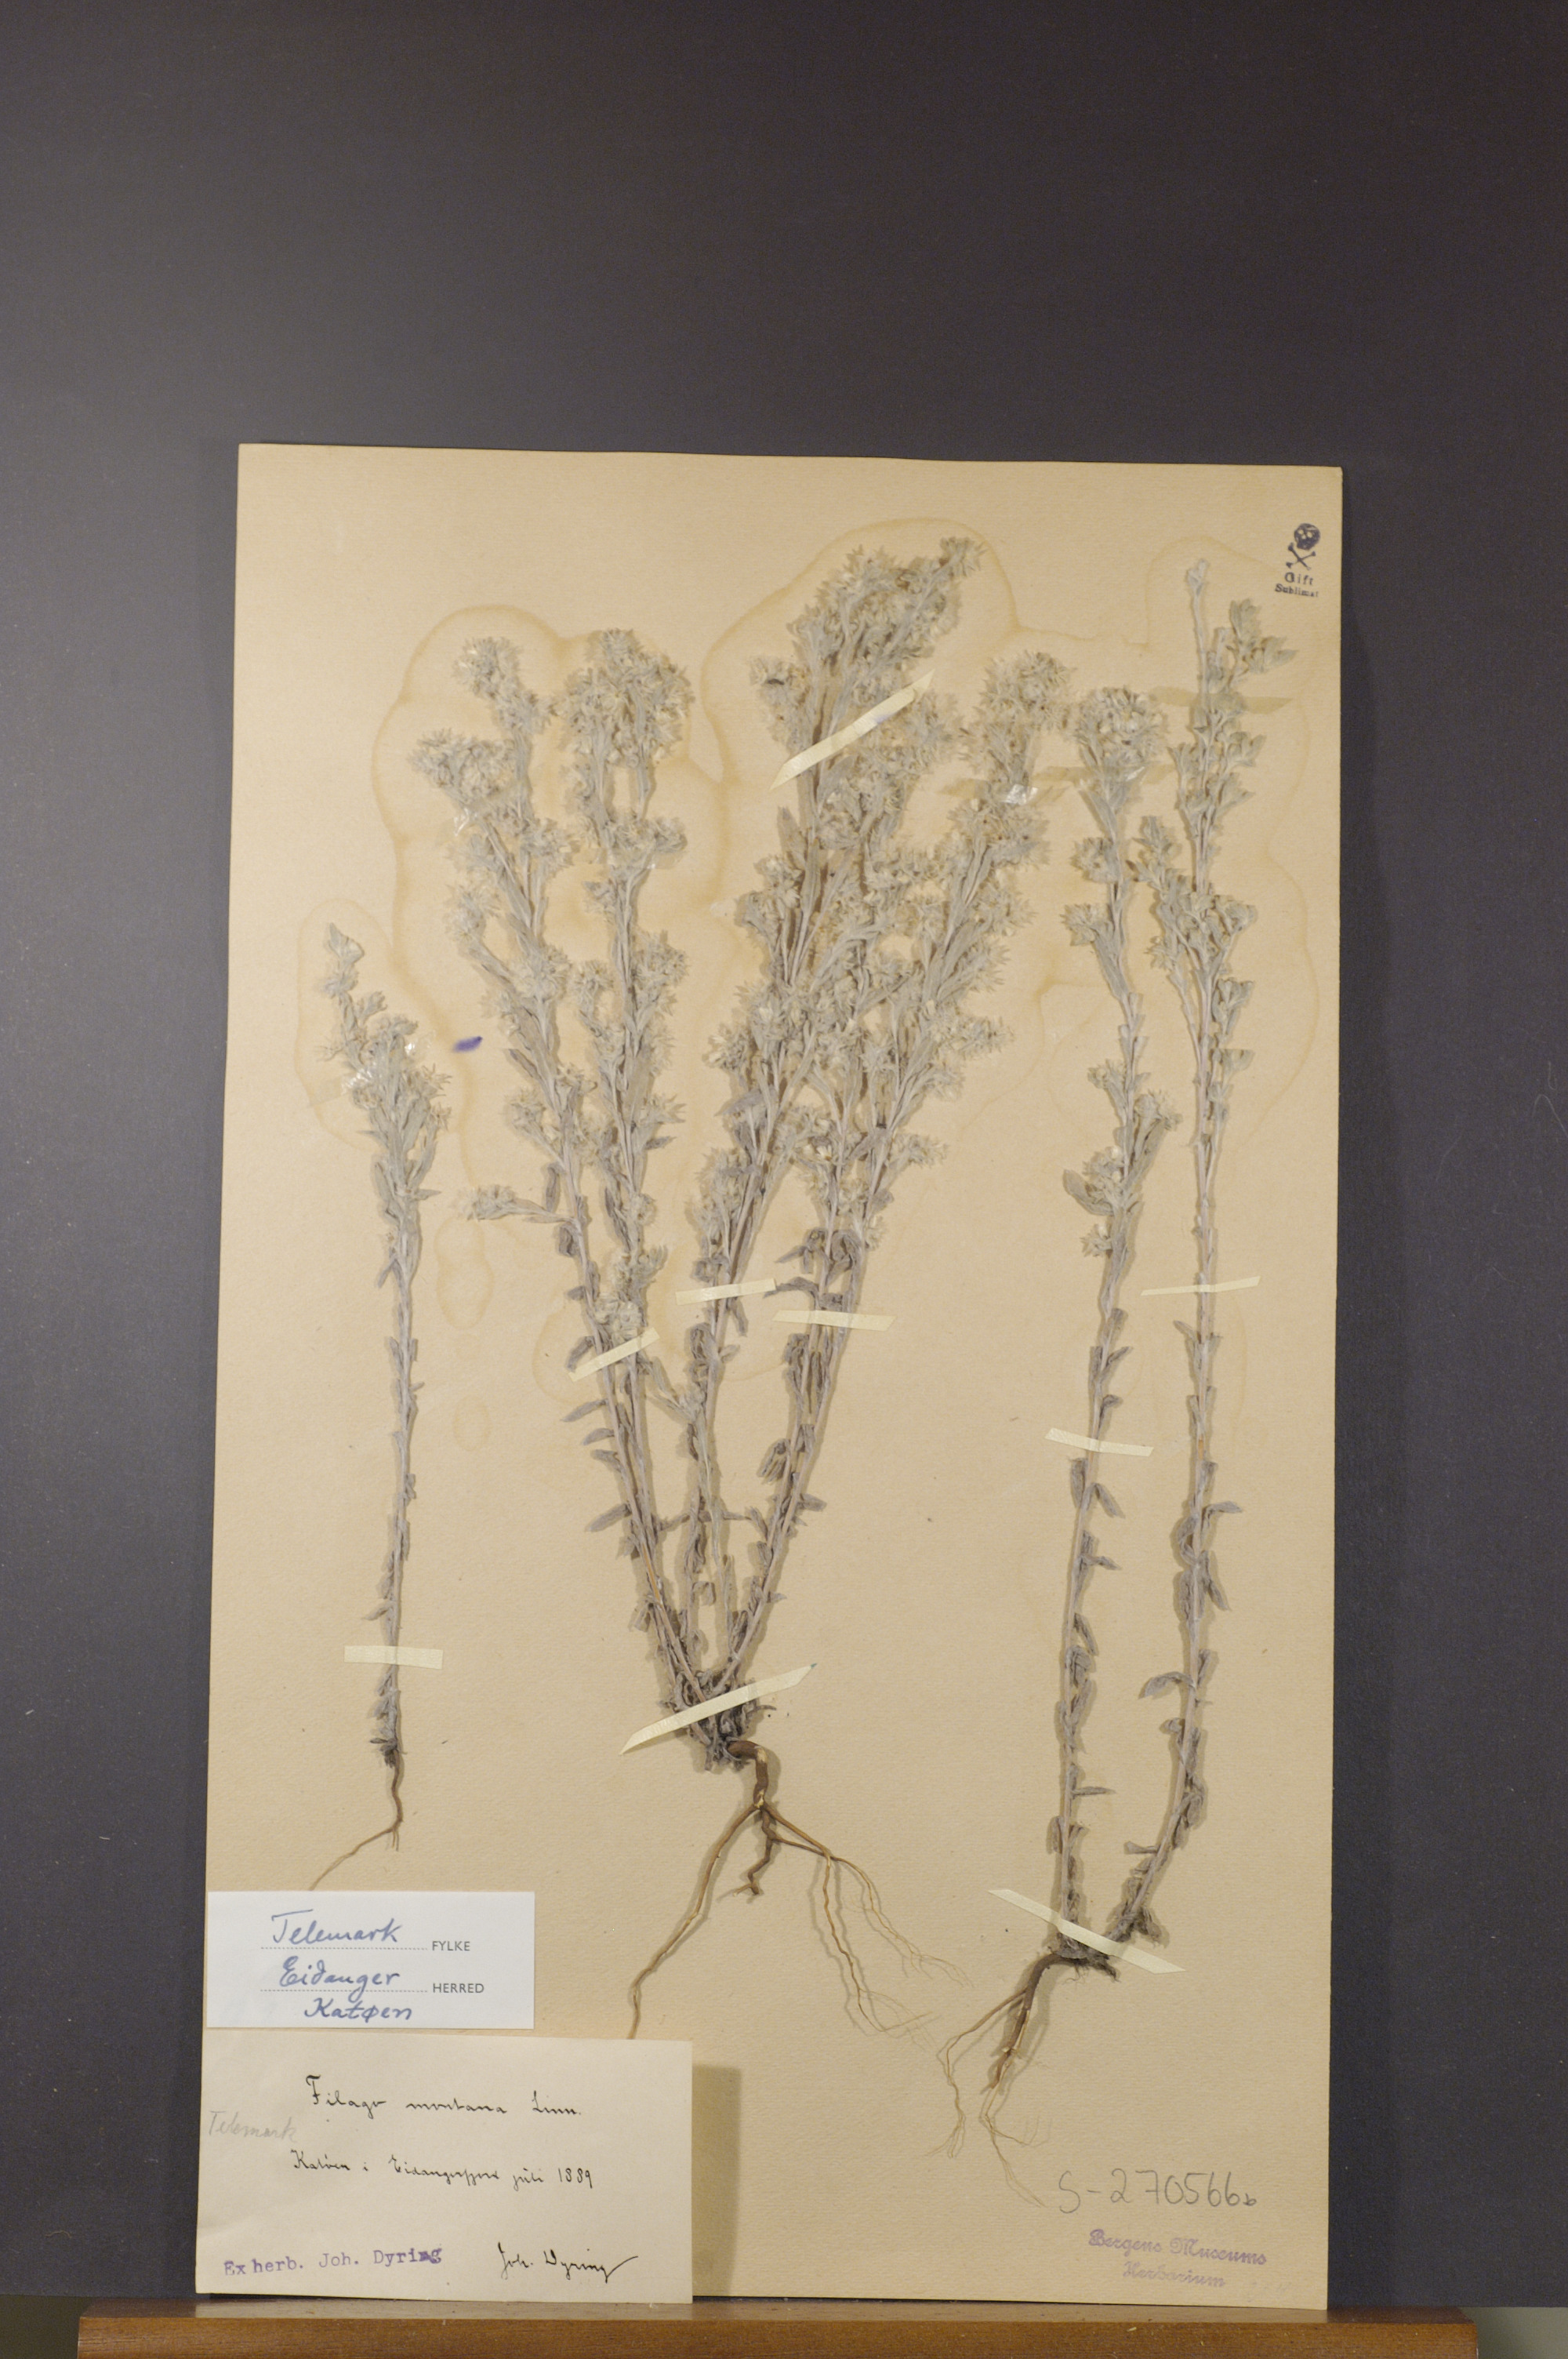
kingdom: Plantae
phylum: Tracheophyta
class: Magnoliopsida
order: Asterales
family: Asteraceae
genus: Filago
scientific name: Filago arvensis
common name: Field cudweed
